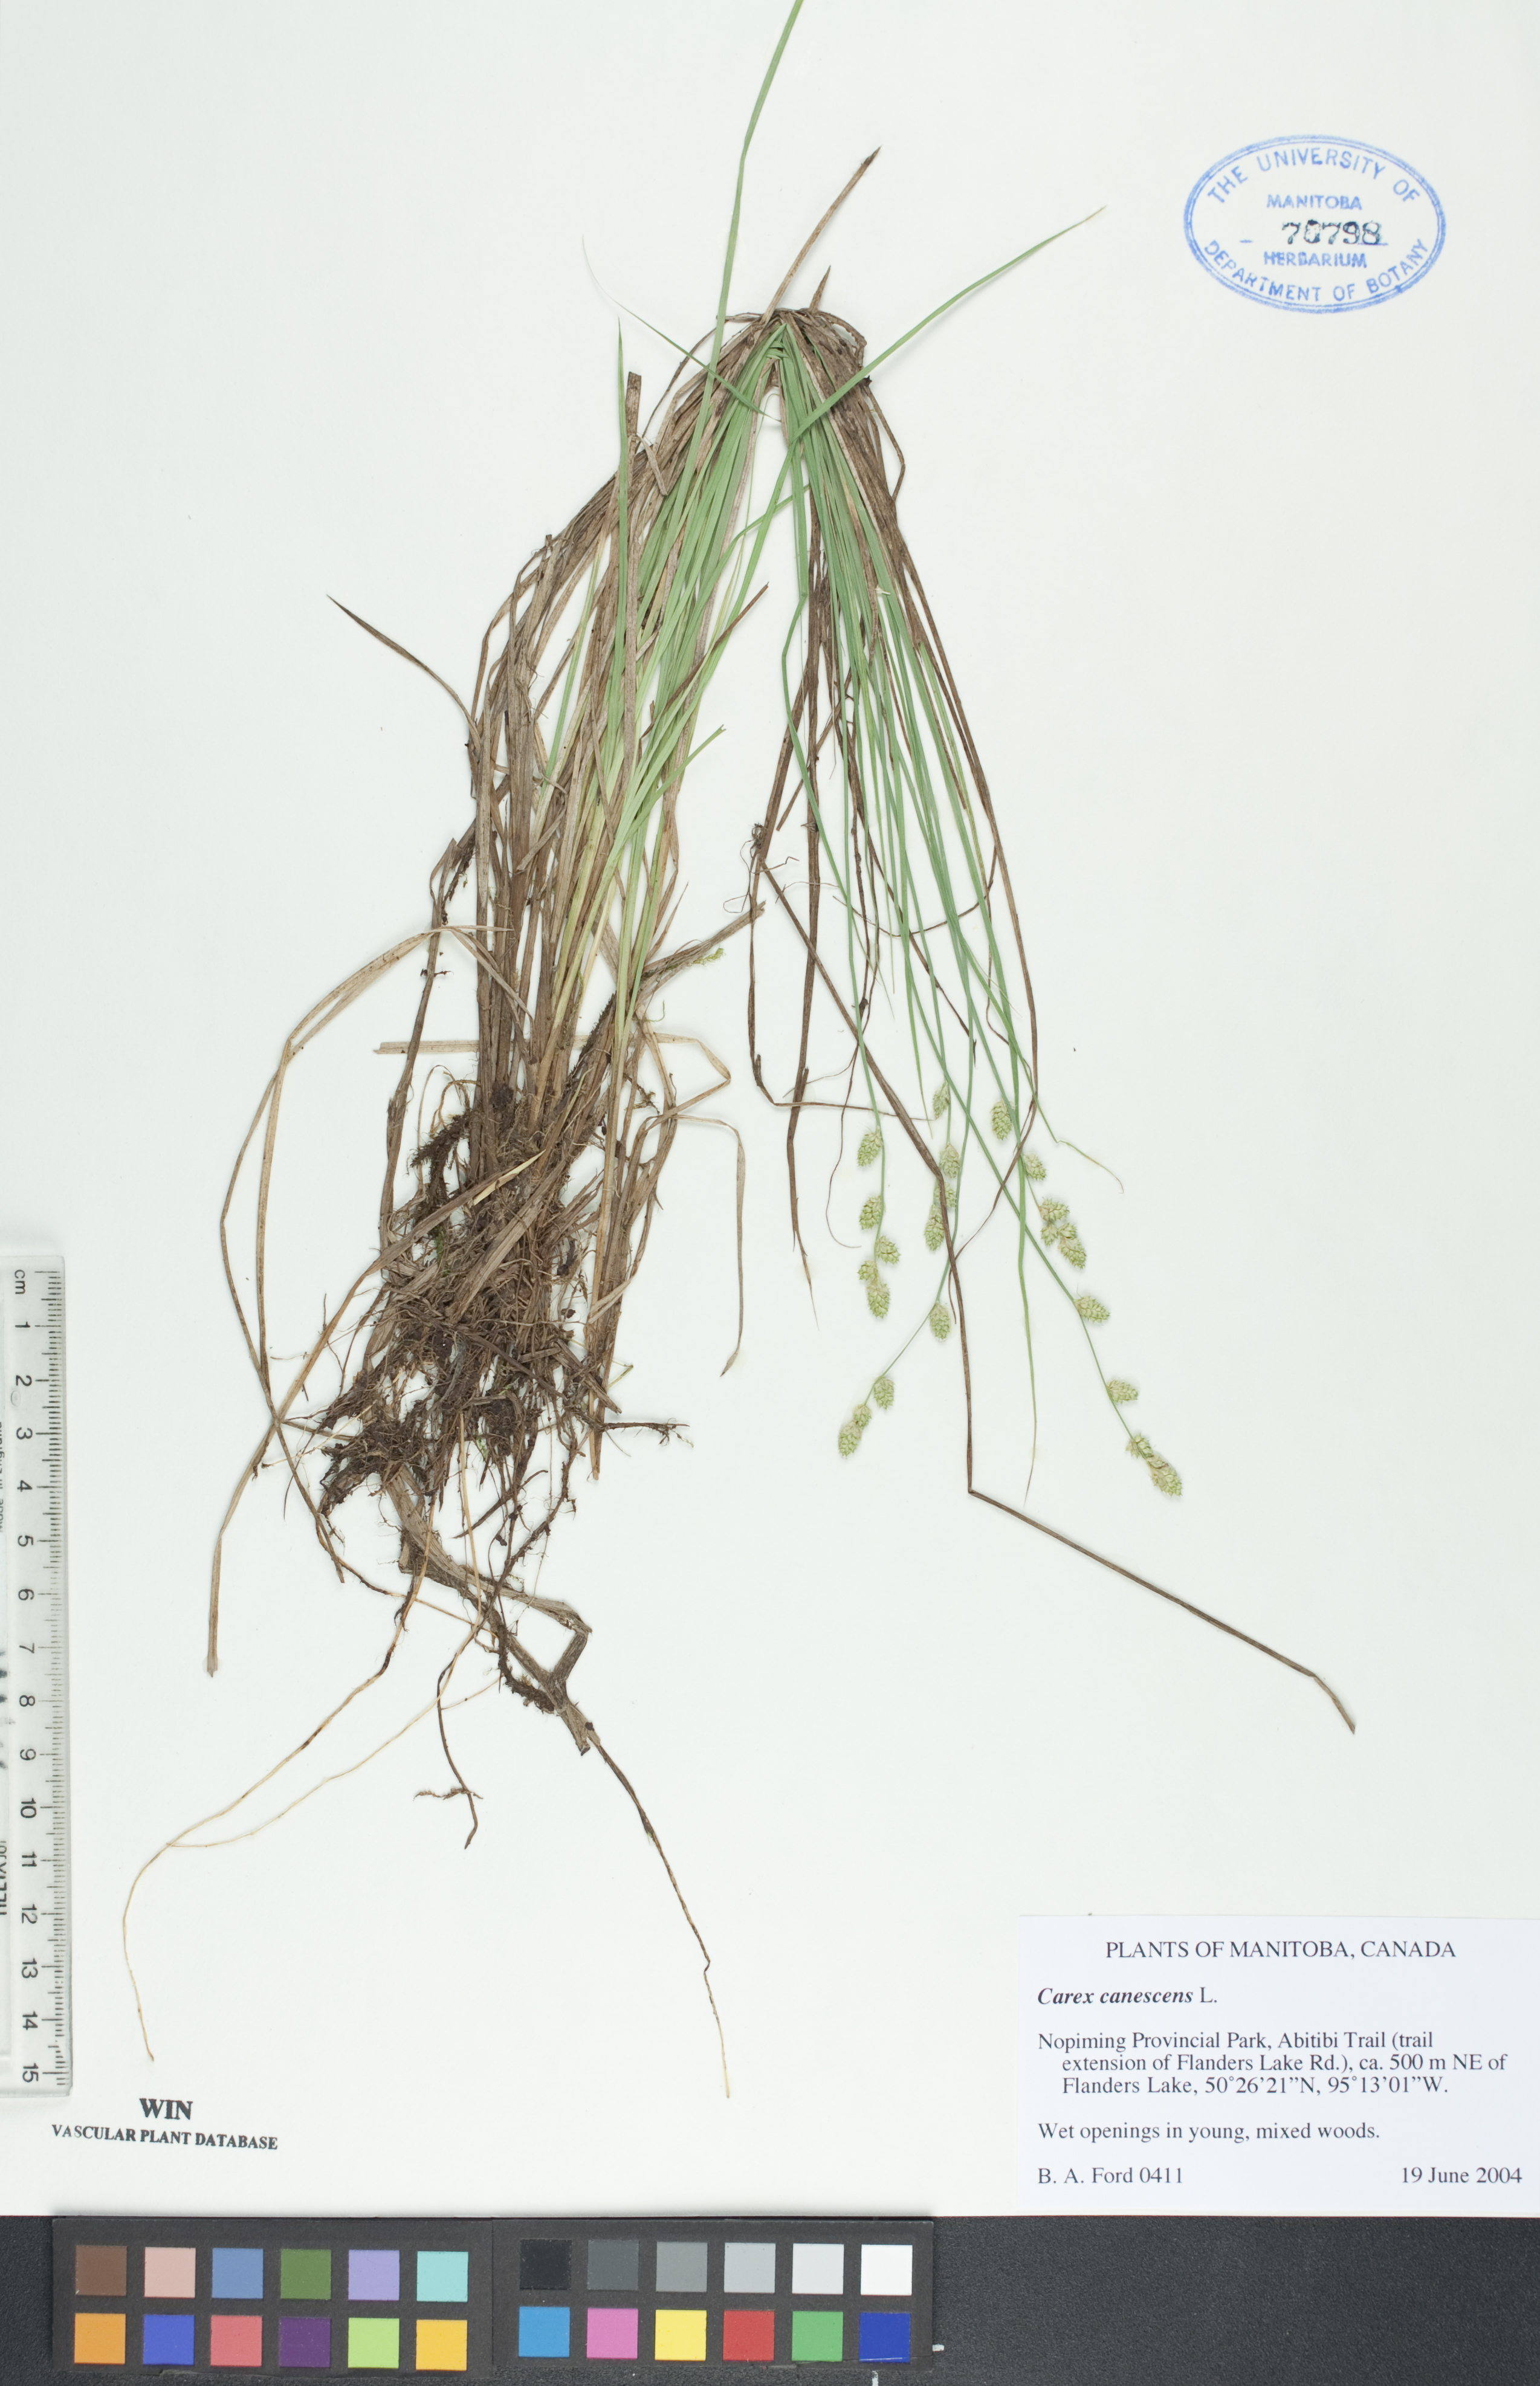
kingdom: Plantae
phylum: Tracheophyta
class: Liliopsida
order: Poales
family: Cyperaceae
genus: Carex
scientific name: Carex canescens
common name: White sedge
